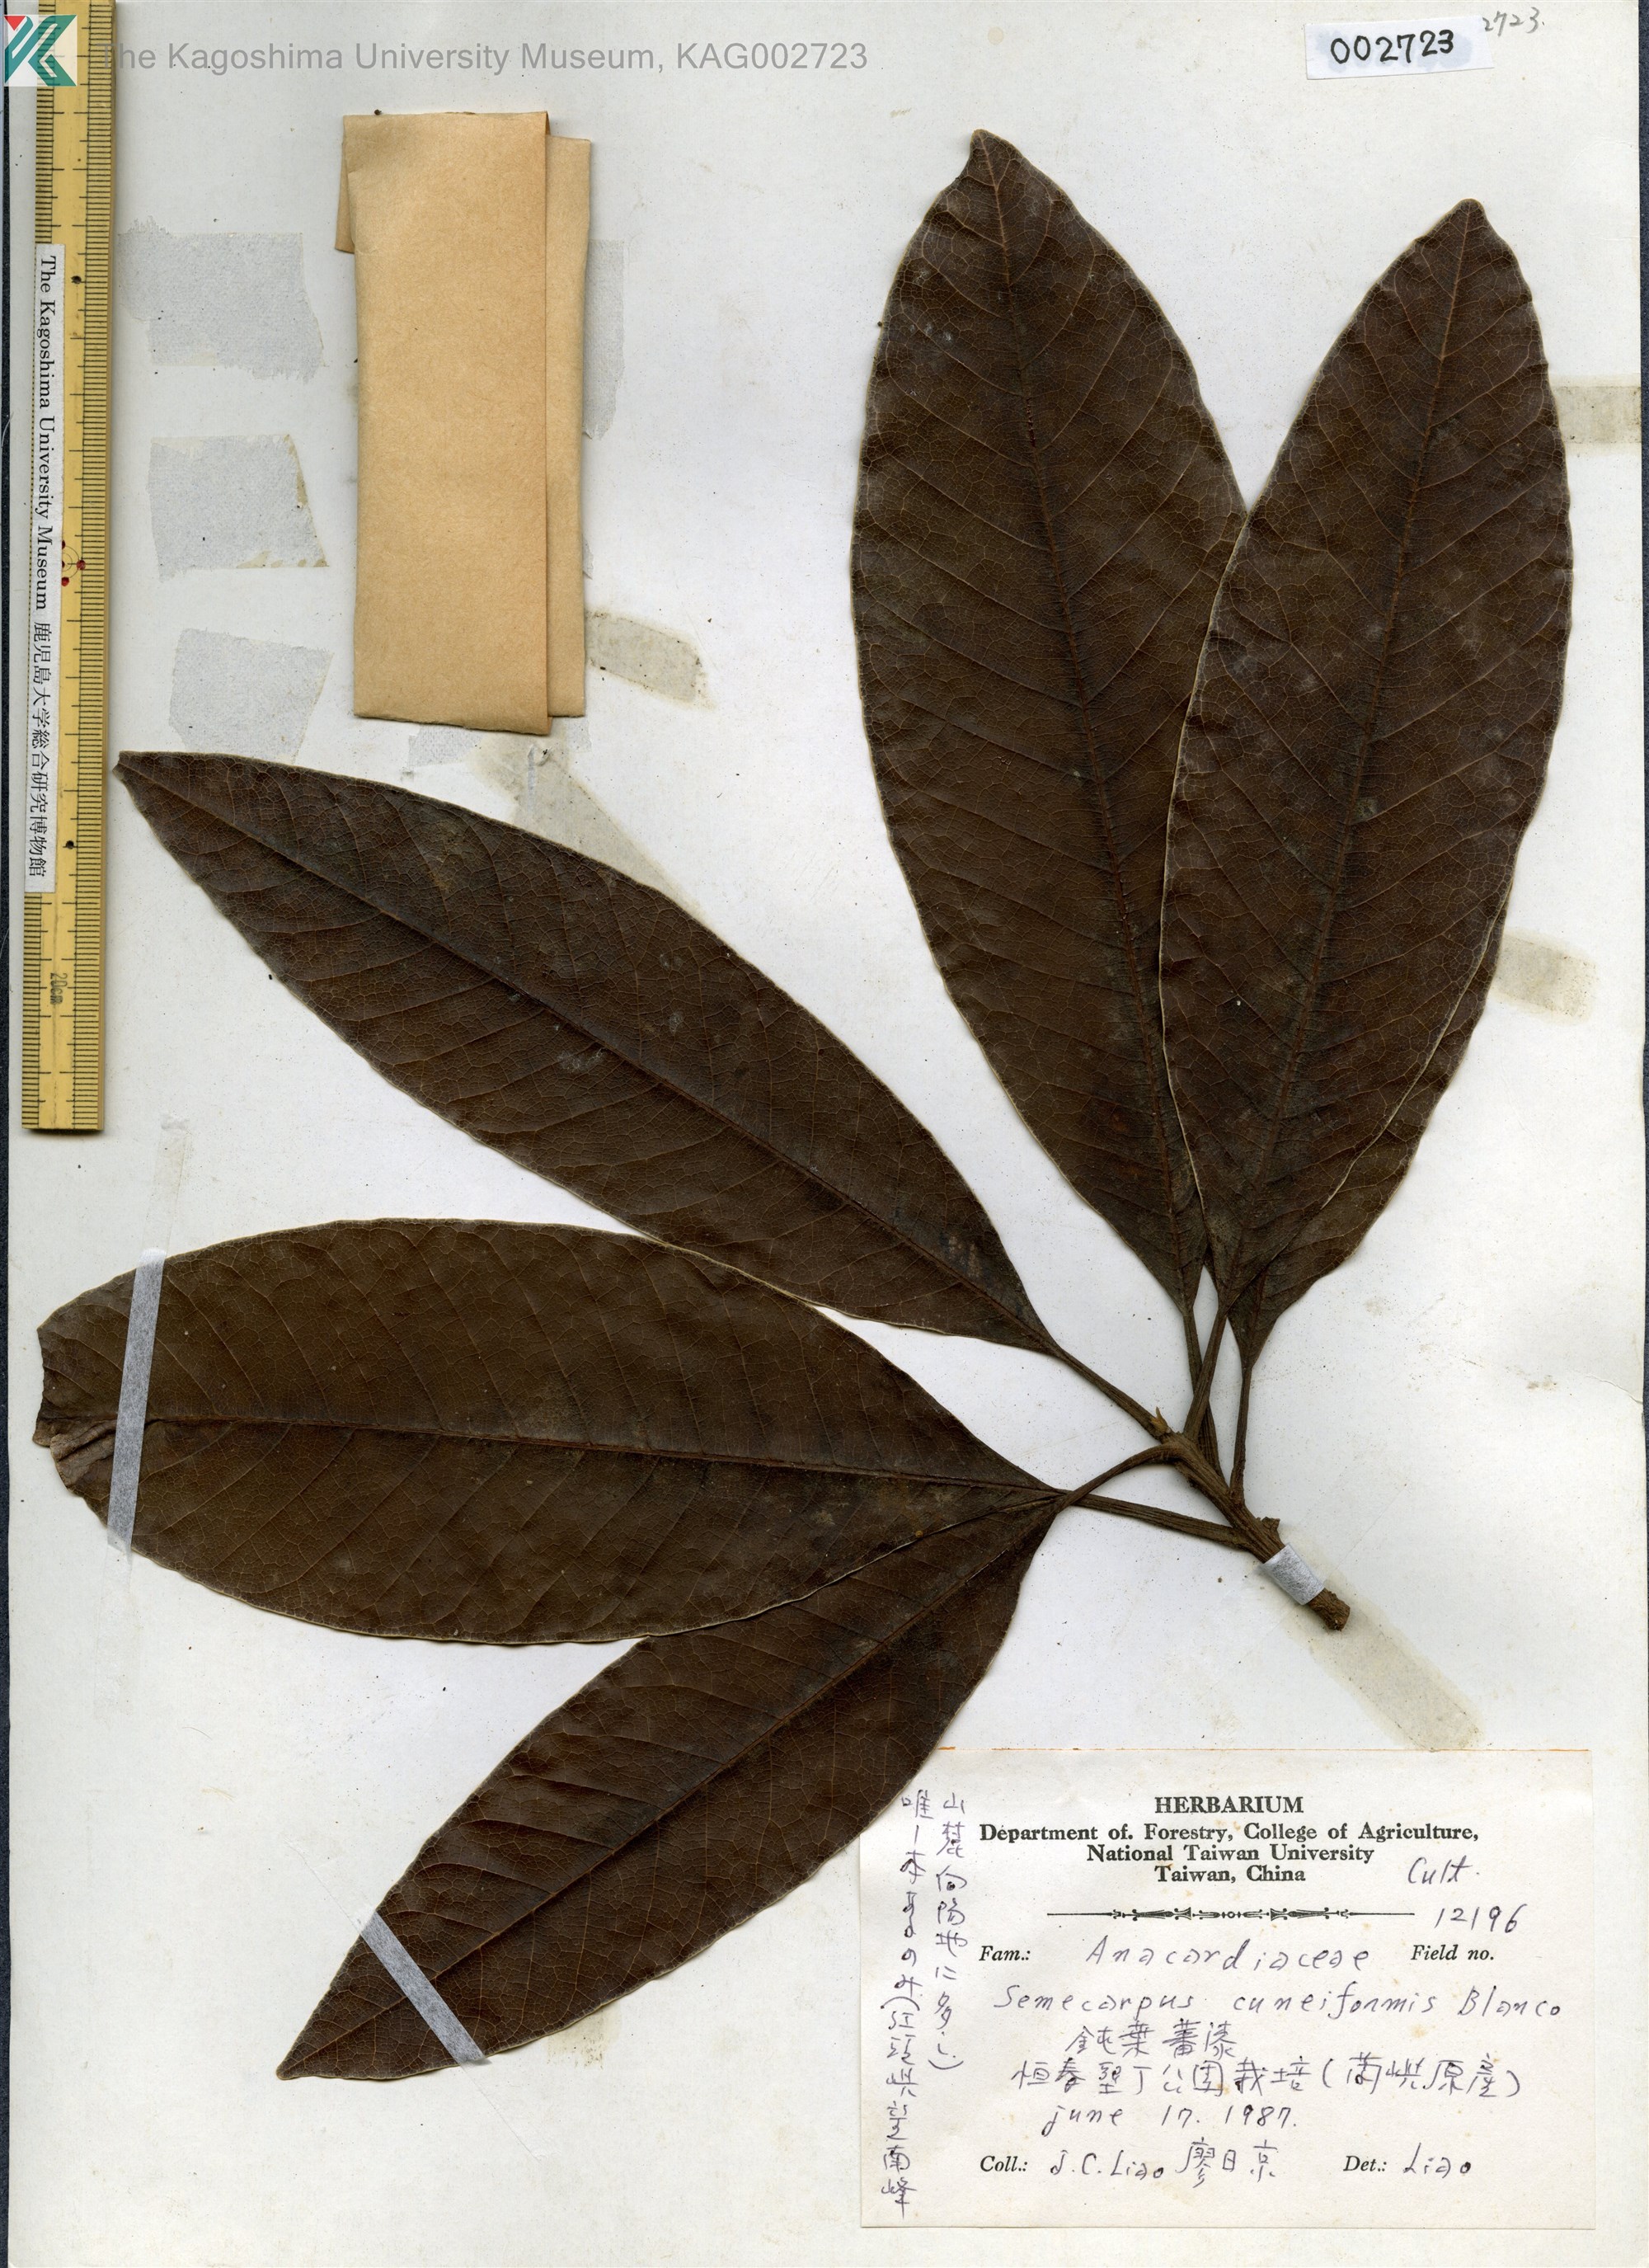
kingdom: Plantae
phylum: Tracheophyta
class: Magnoliopsida
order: Sapindales
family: Anacardiaceae
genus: Semecarpus
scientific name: Semecarpus cuneiformis
